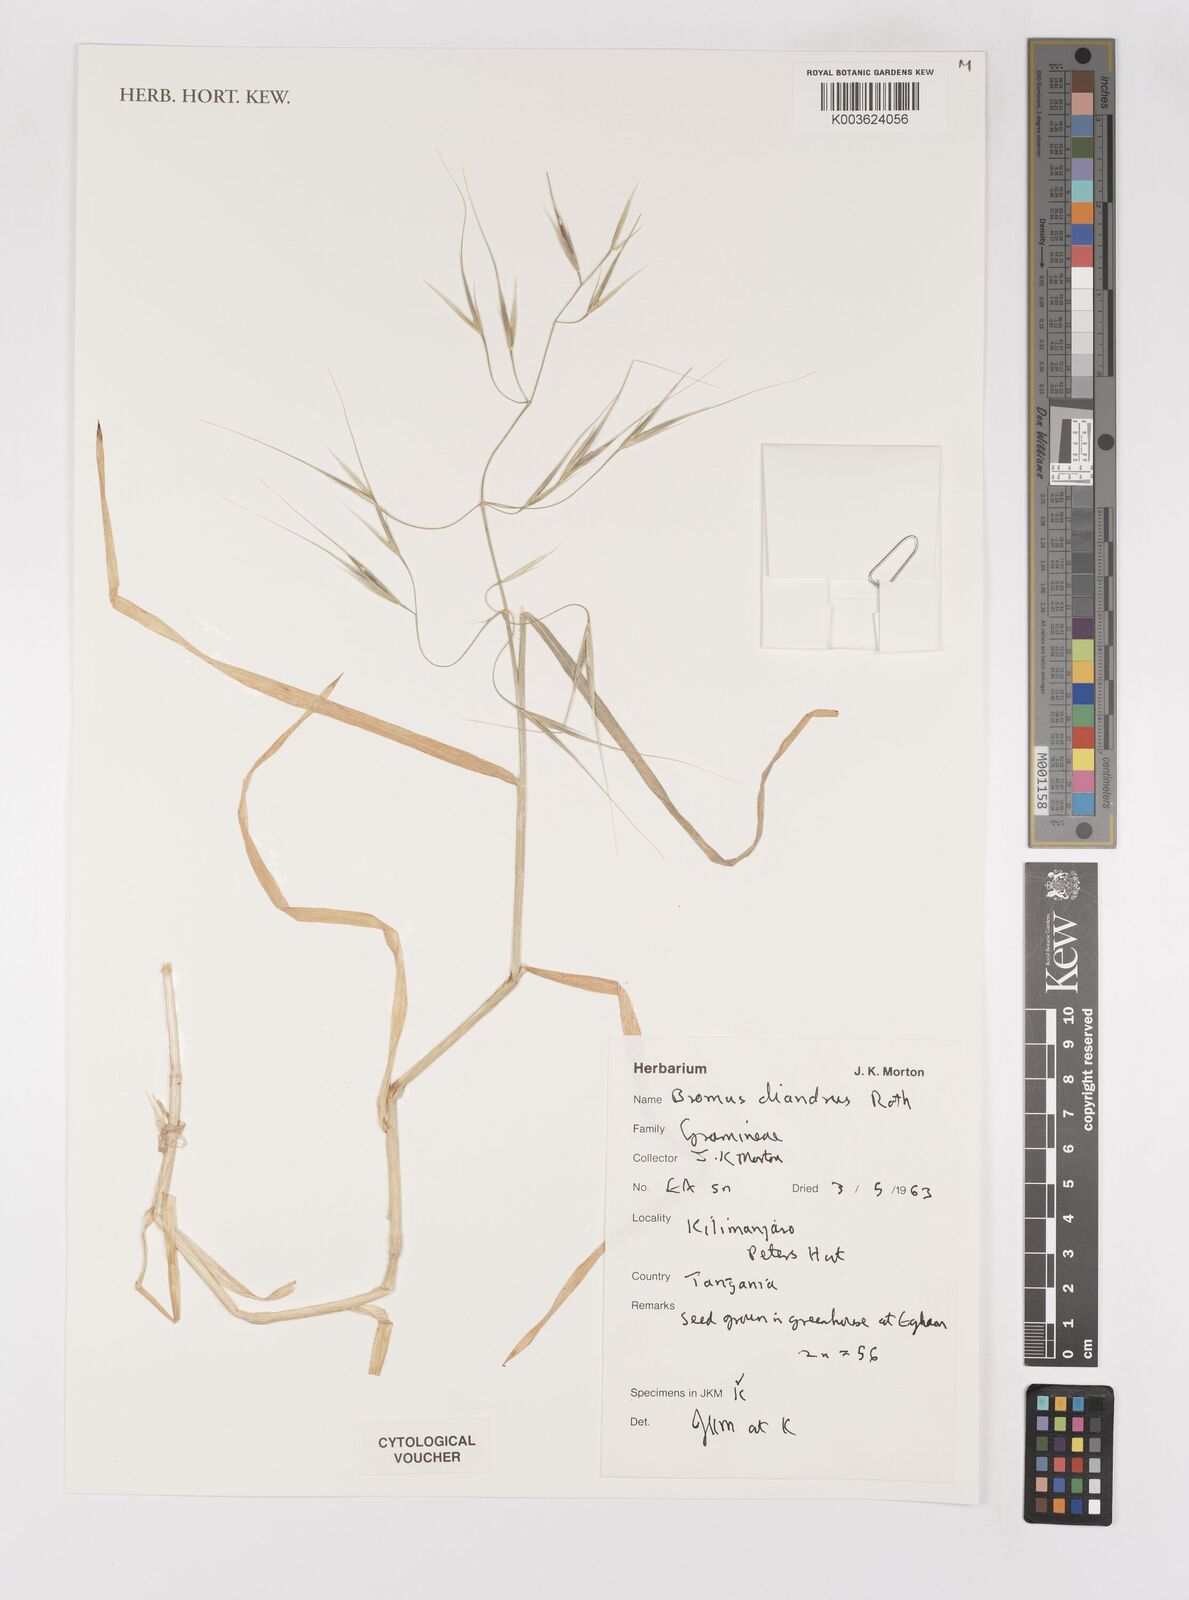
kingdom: Plantae
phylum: Tracheophyta
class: Liliopsida
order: Poales
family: Poaceae
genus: Bromus
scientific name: Bromus diandrus
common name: Ripgut brome
